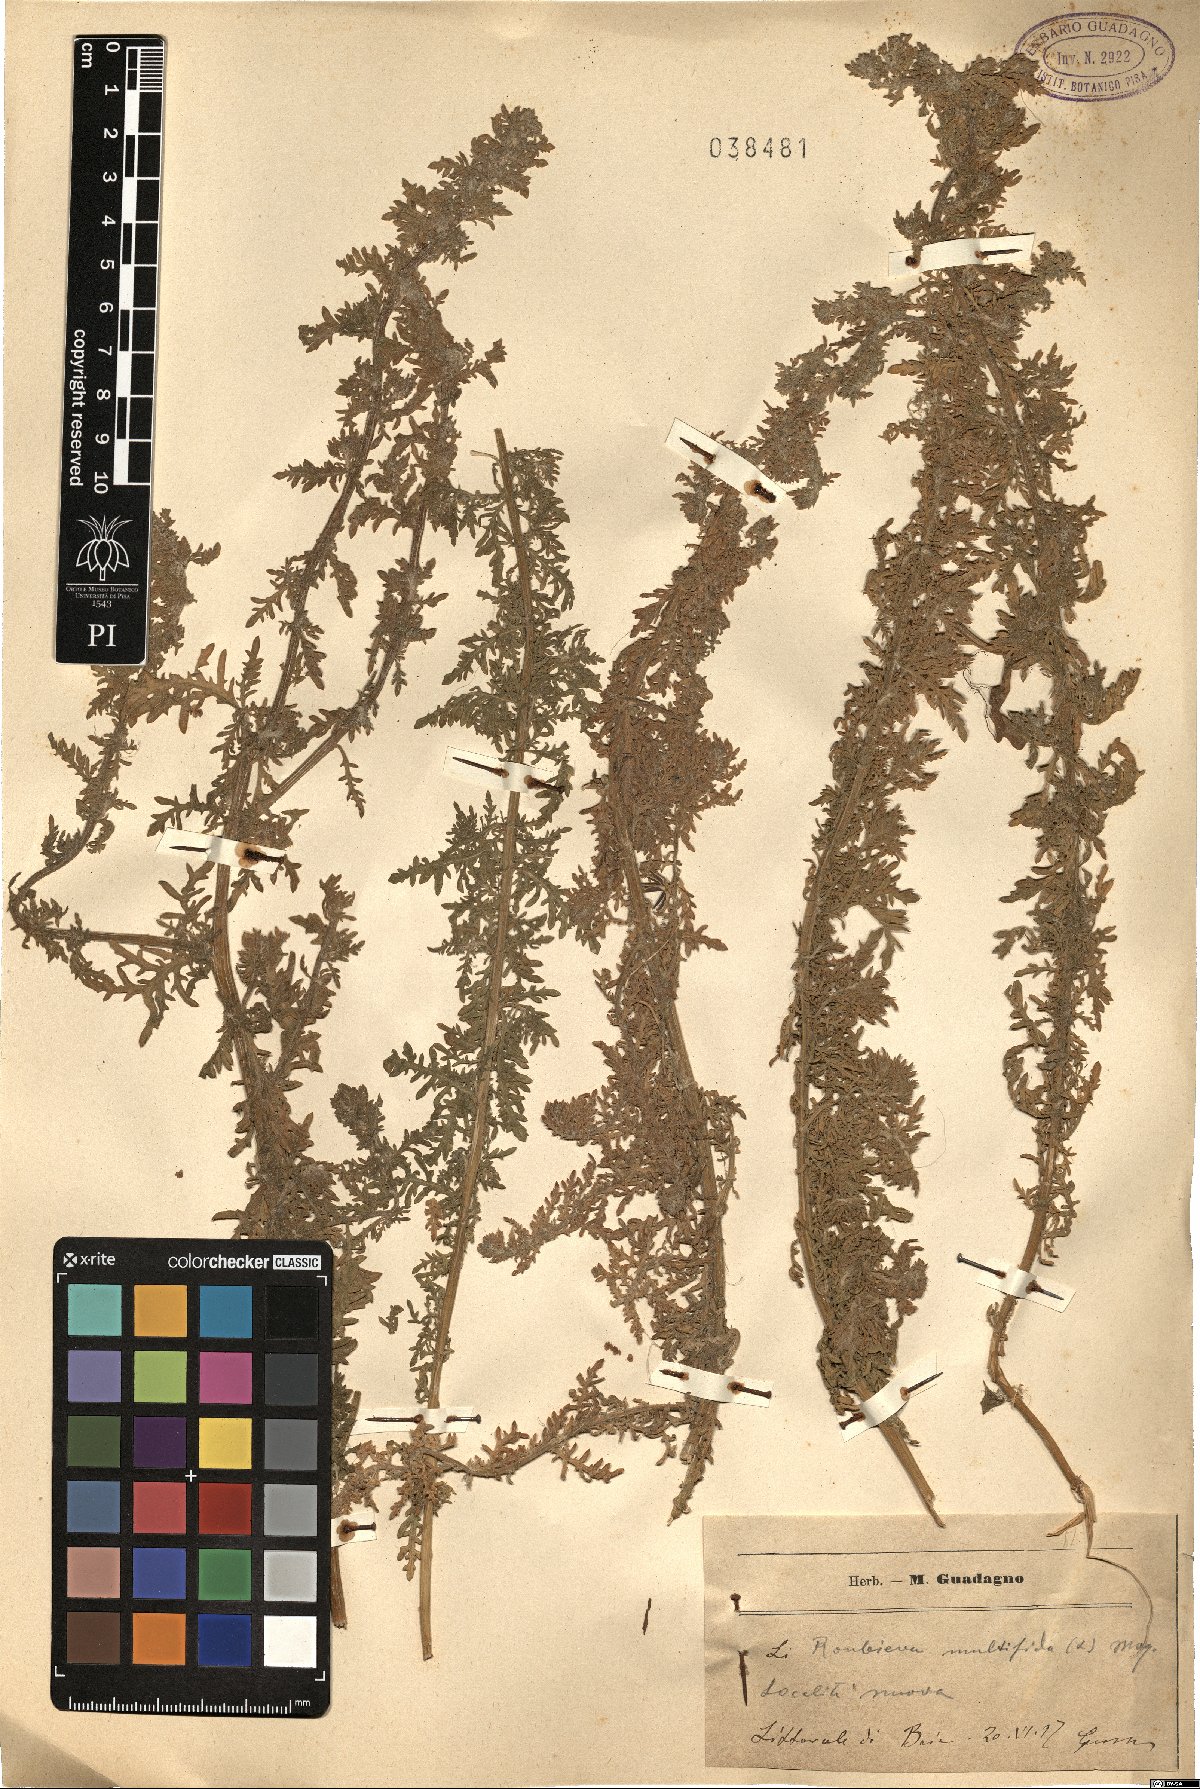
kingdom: Plantae
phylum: Tracheophyta
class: Magnoliopsida
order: Caryophyllales
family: Amaranthaceae
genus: Dysphania
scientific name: Dysphania multifida
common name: Cutleaf goosefoot
